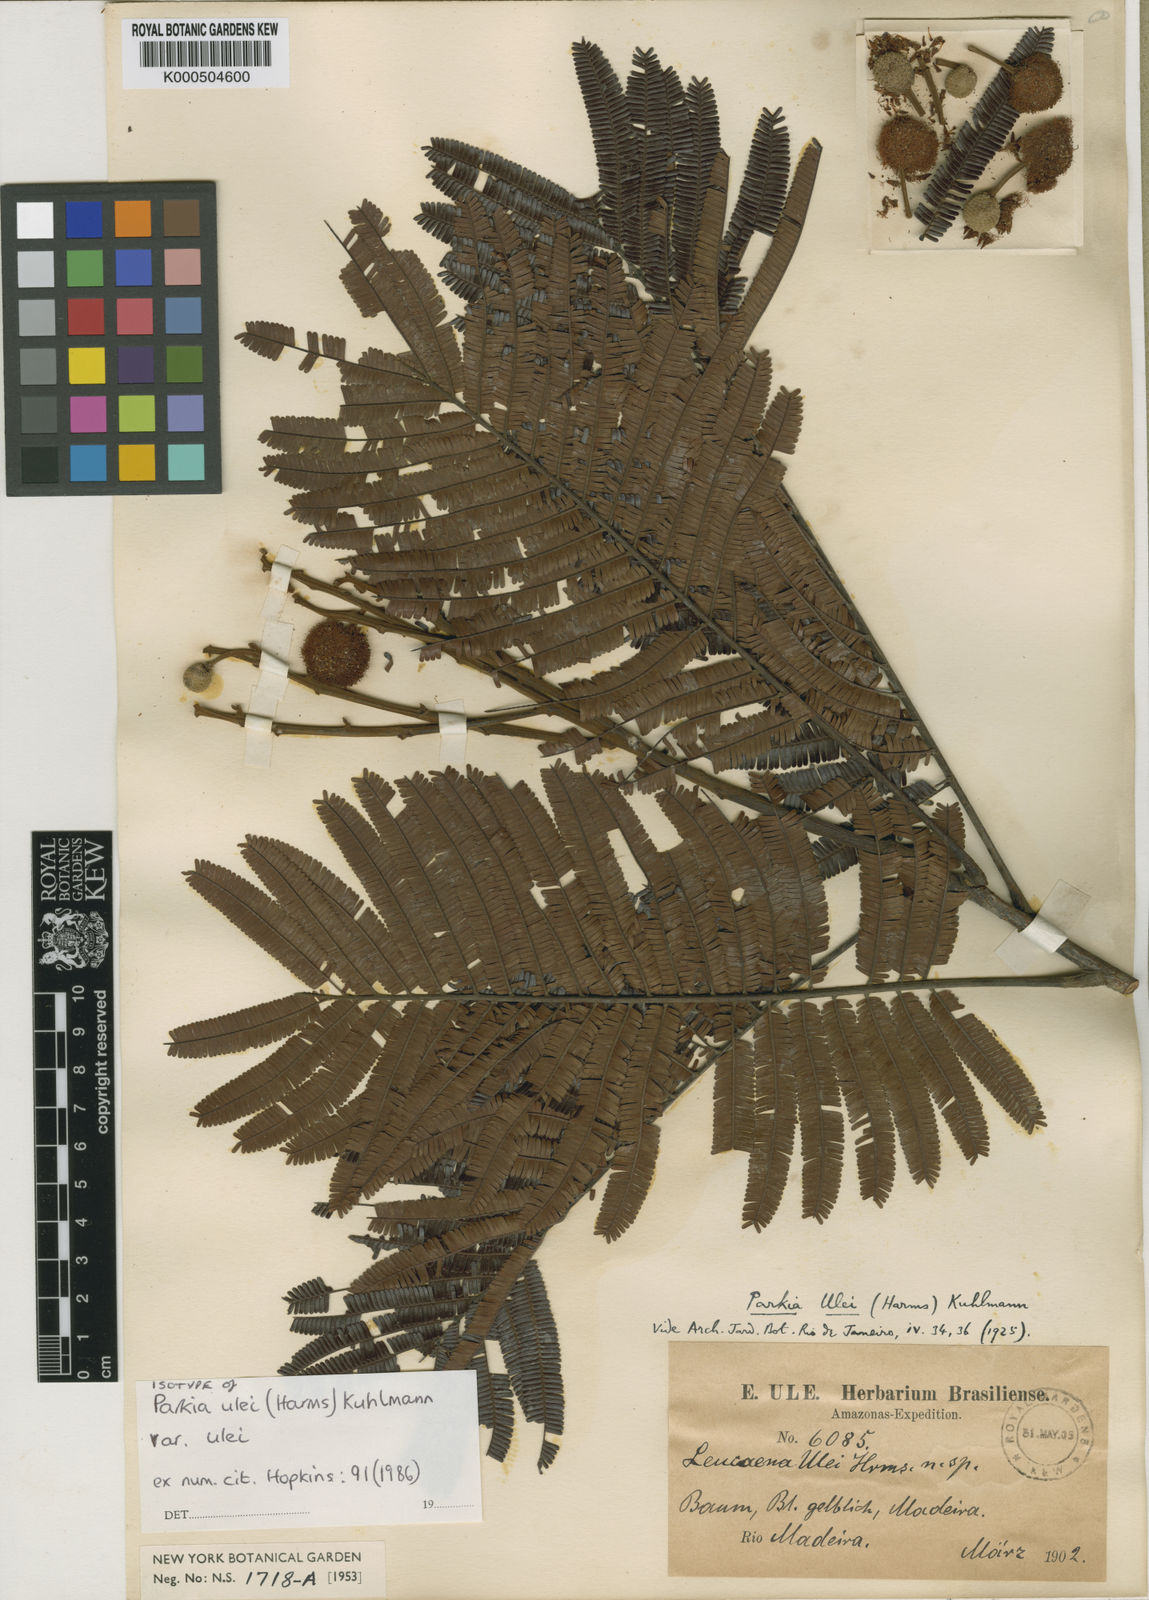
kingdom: Plantae
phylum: Tracheophyta
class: Magnoliopsida
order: Fabales
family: Fabaceae
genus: Parkia
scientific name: Parkia ulei
